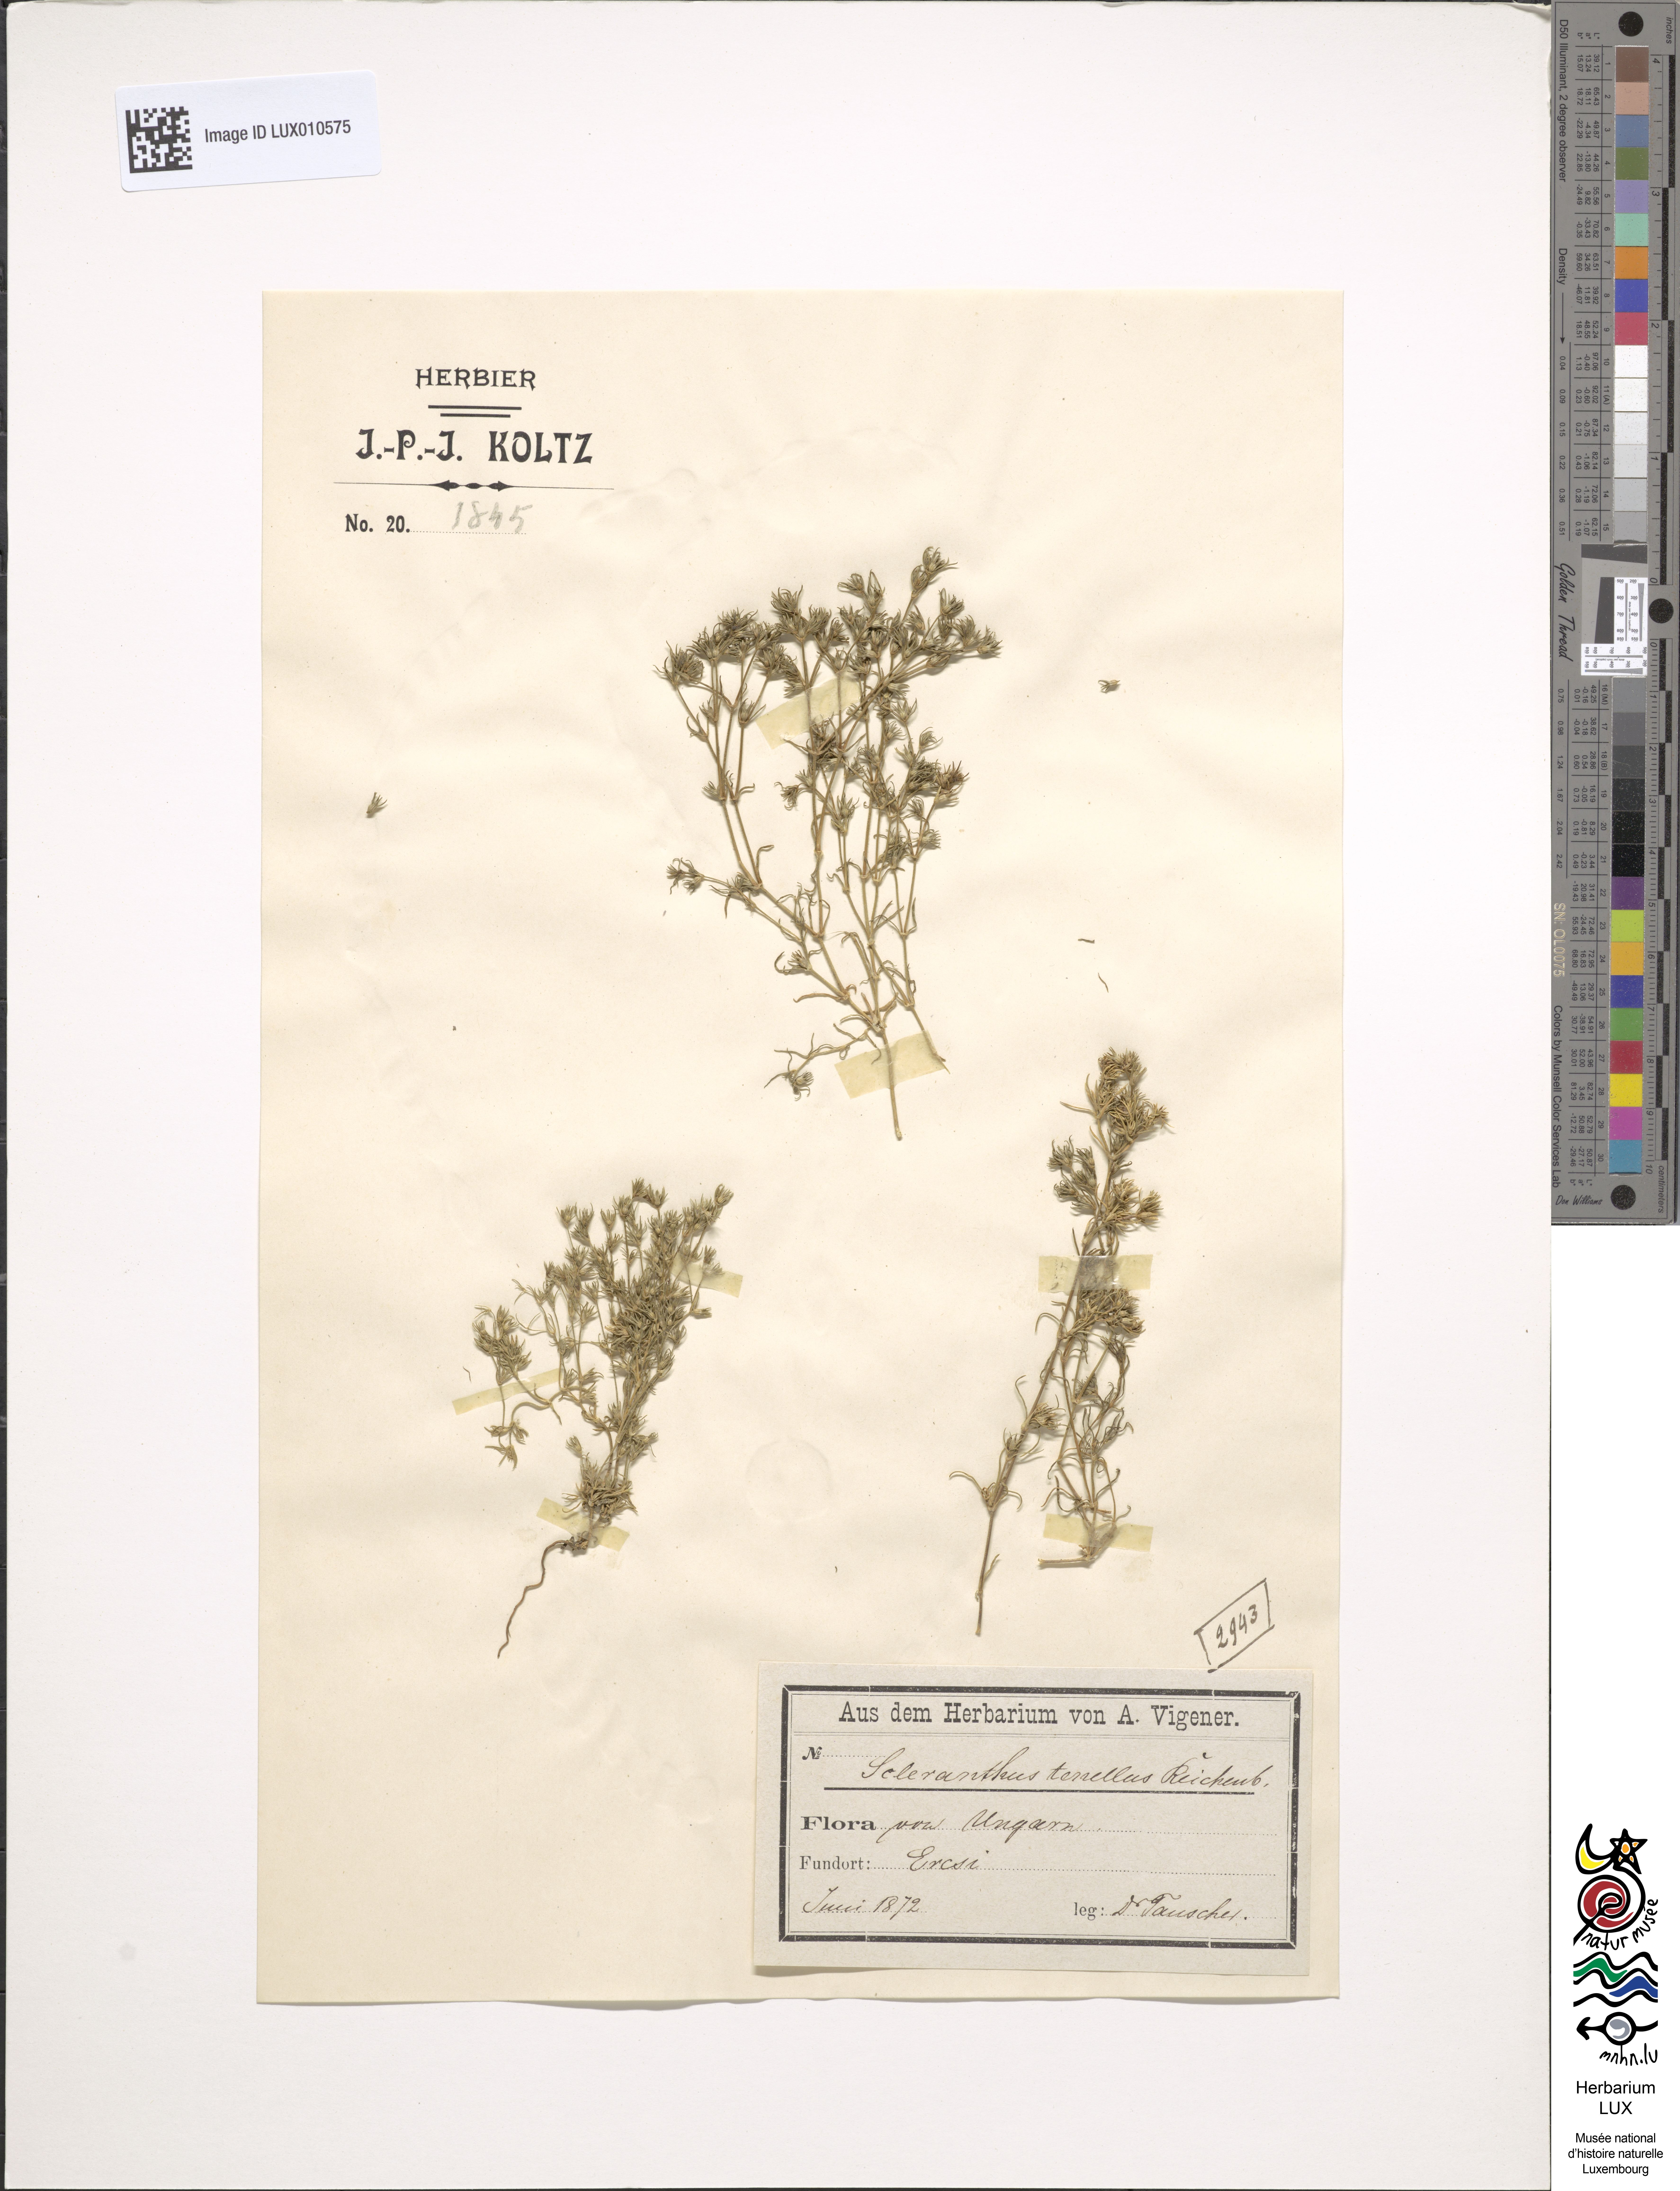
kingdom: Plantae
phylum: Tracheophyta
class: Magnoliopsida
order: Caryophyllales
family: Caryophyllaceae
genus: Scleranthus
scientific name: Scleranthus annuus
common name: Annual knawel
